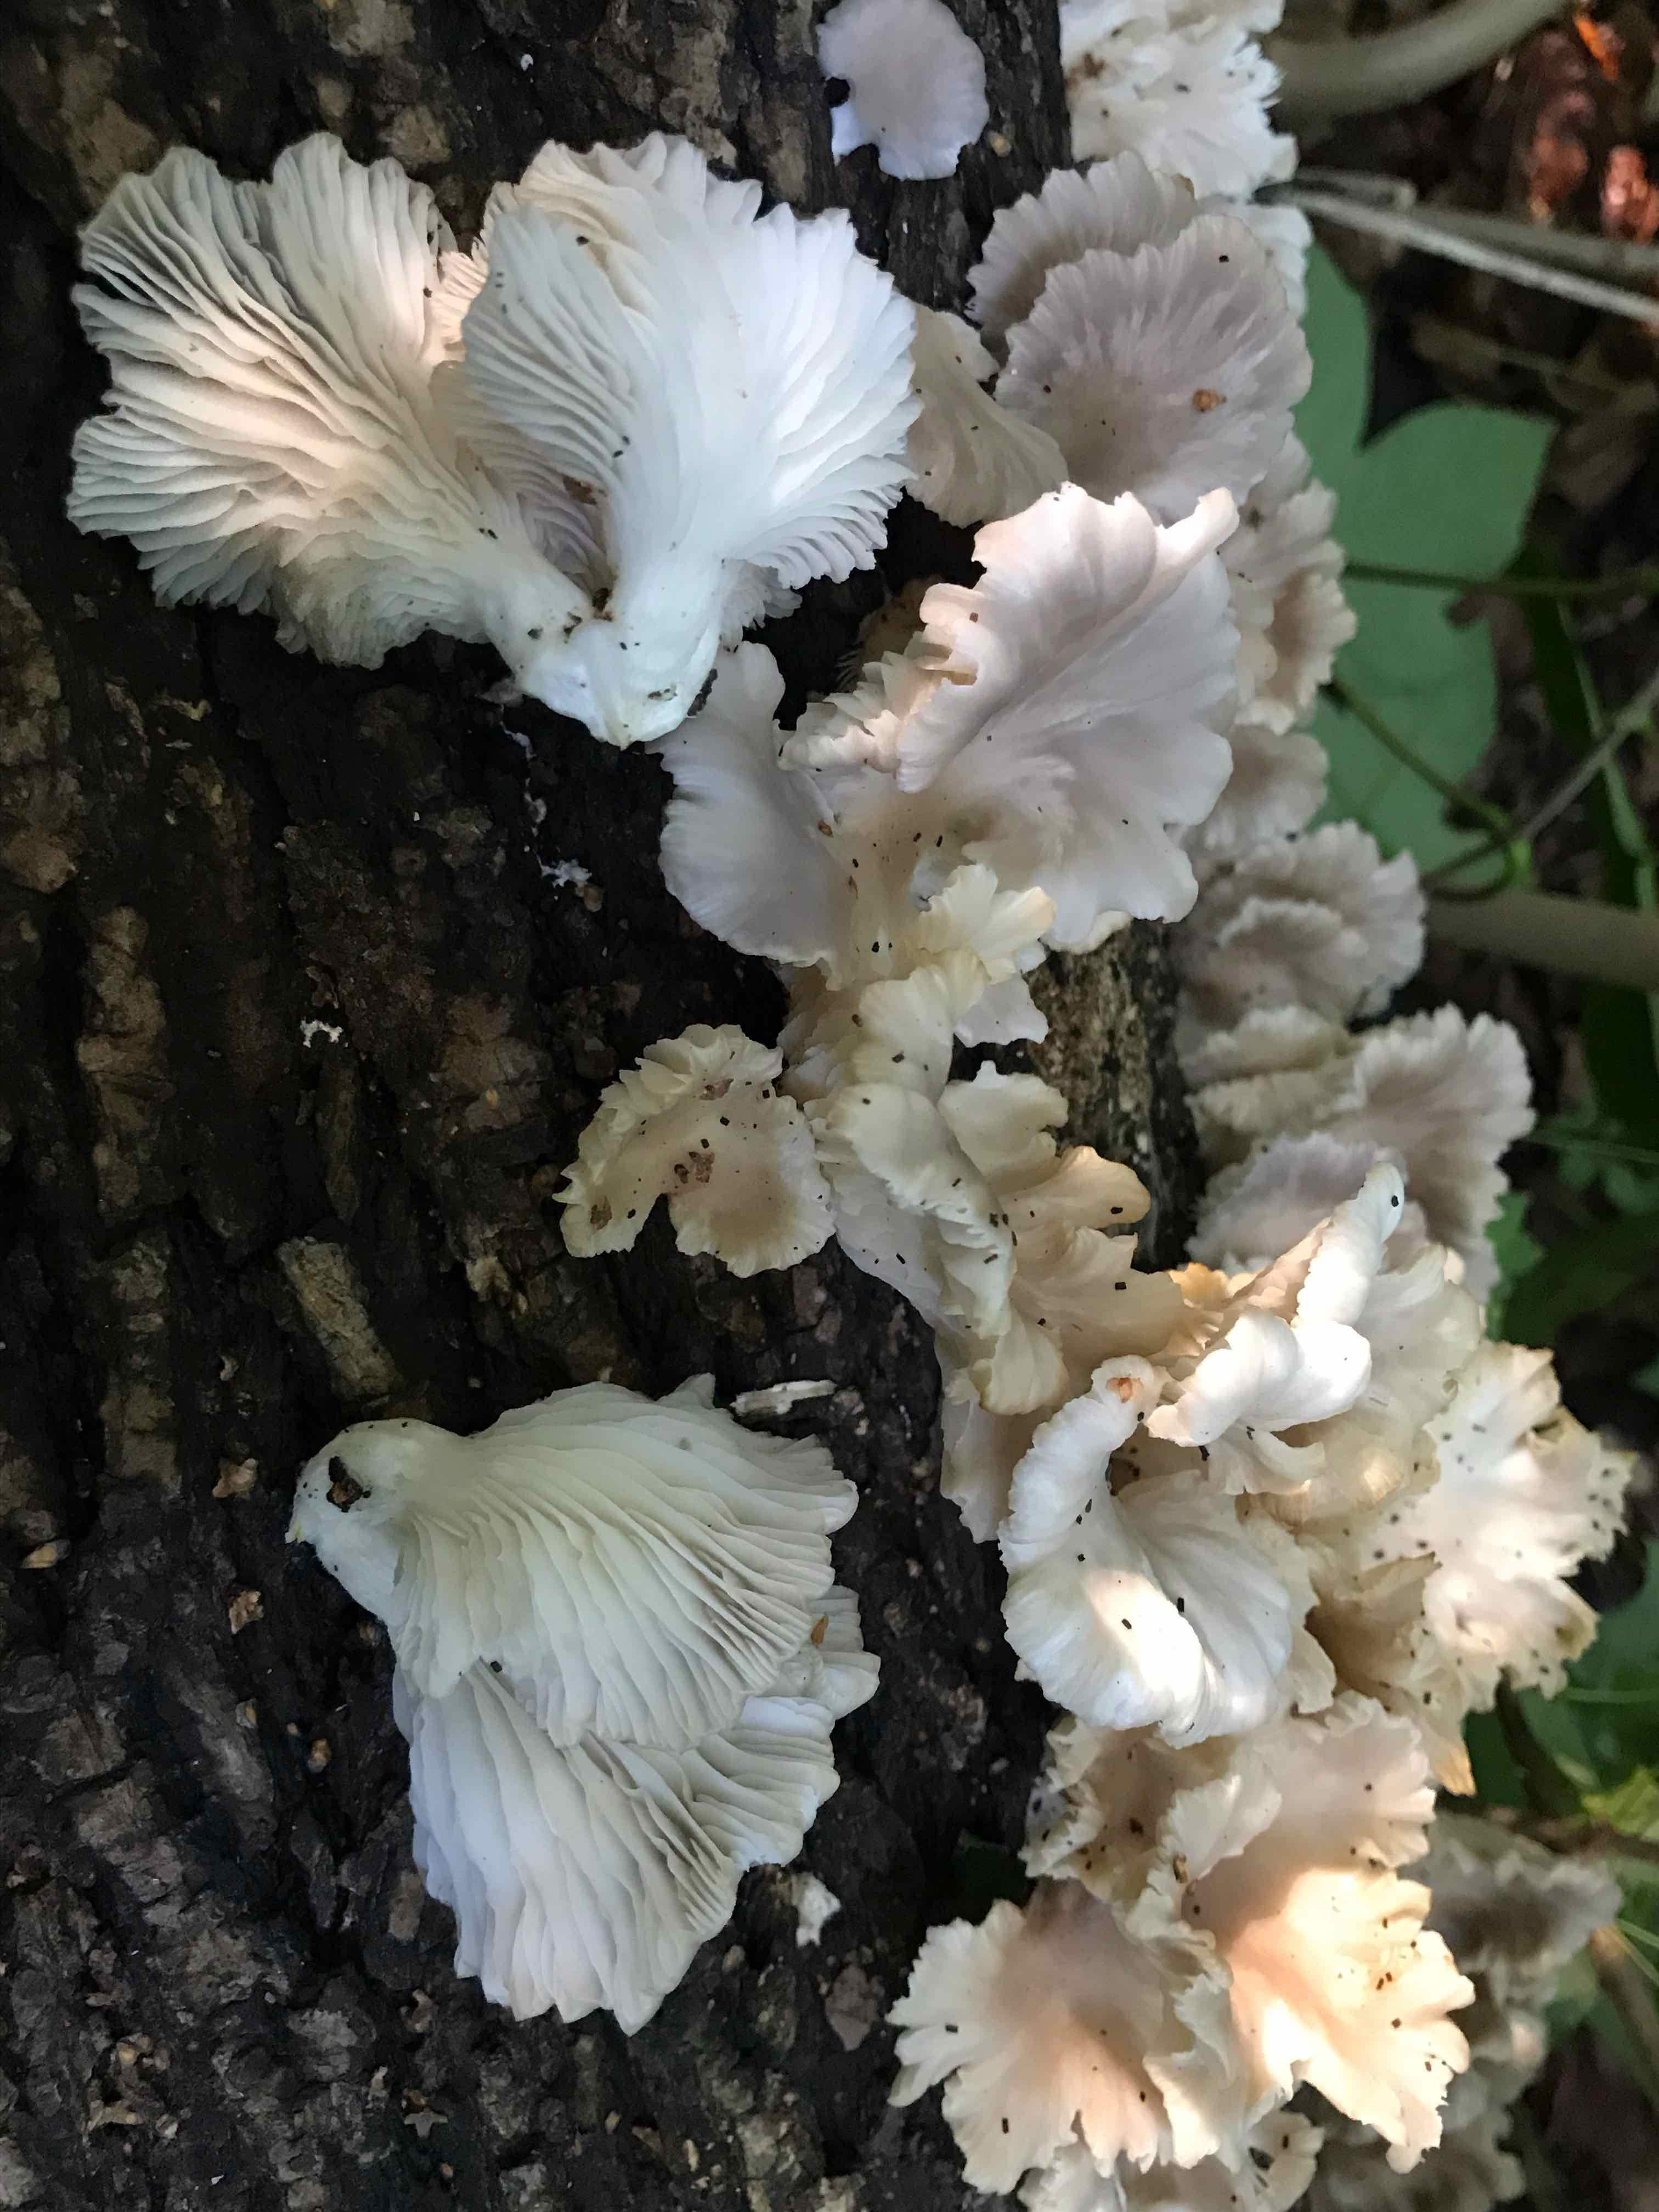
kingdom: Fungi
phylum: Basidiomycota
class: Agaricomycetes
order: Agaricales
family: Pleurotaceae
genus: Pleurotus
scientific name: Pleurotus pulmonarius
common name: sommer-østershat
